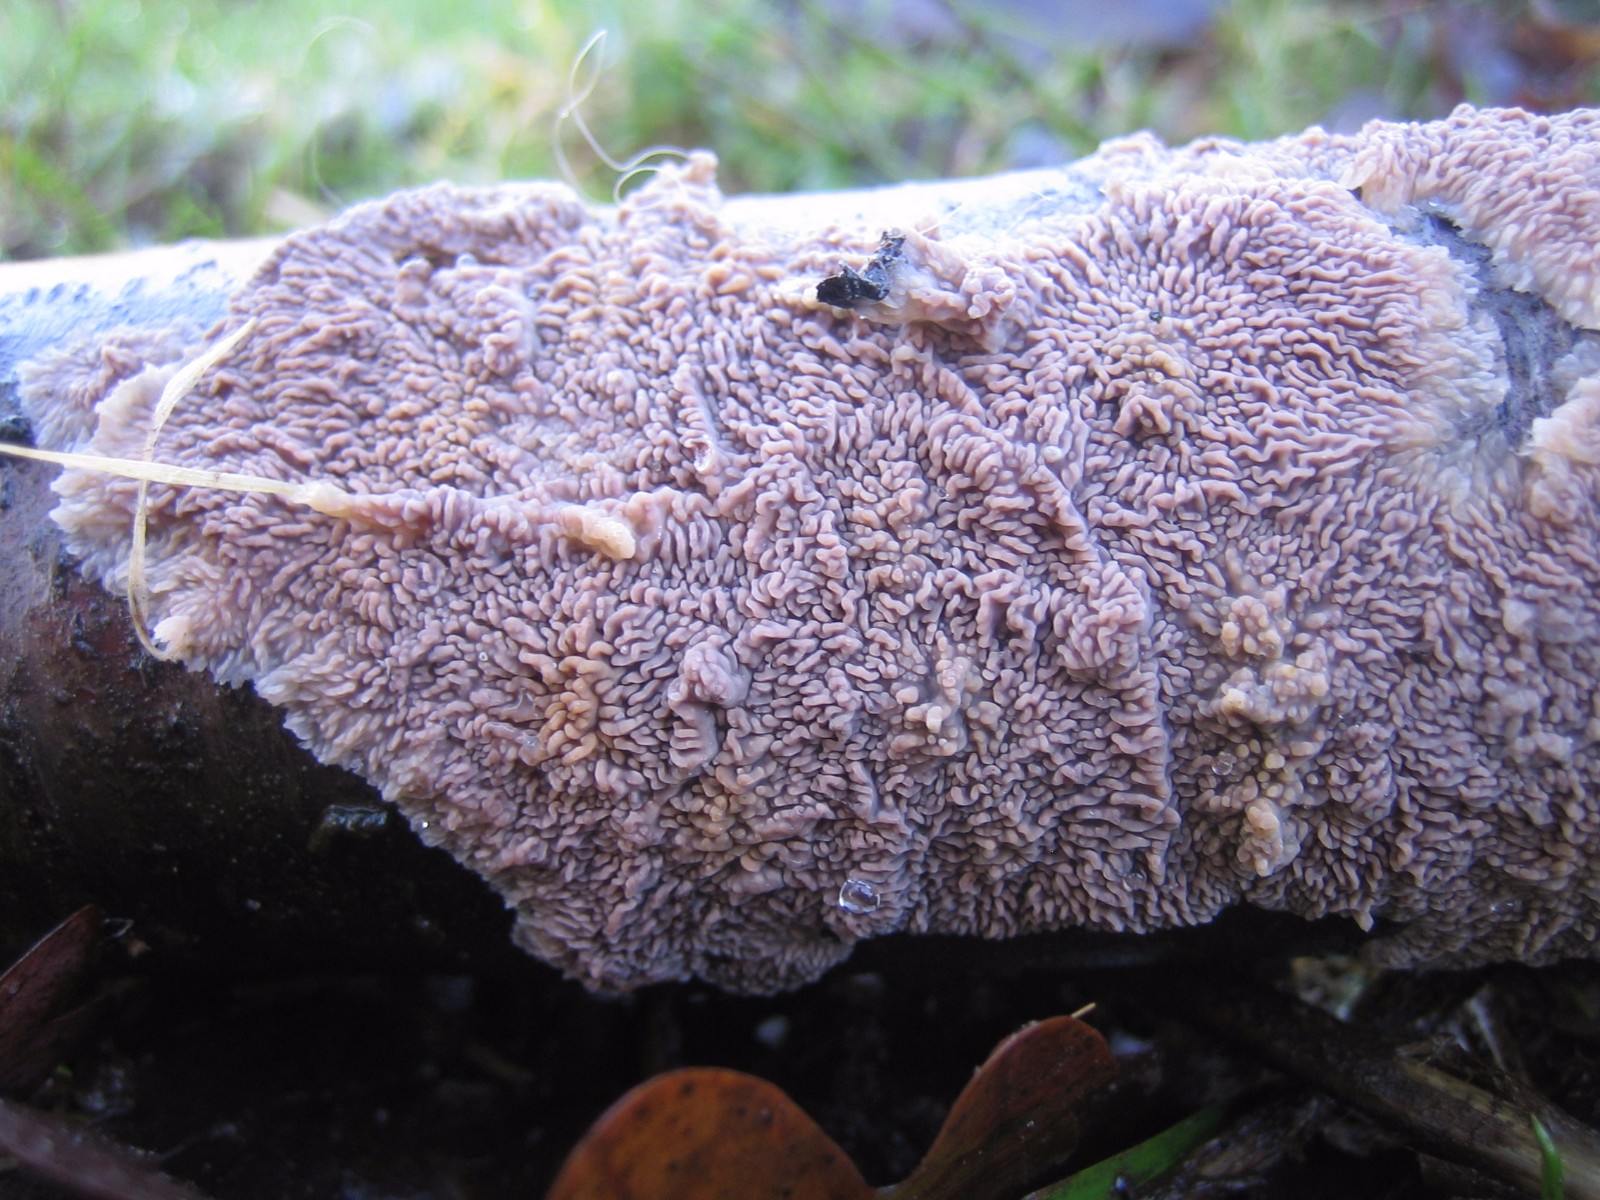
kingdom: Fungi
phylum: Basidiomycota
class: Agaricomycetes
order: Polyporales
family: Meruliaceae
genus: Phlebia
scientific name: Phlebia radiata
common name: stråle-åresvamp
